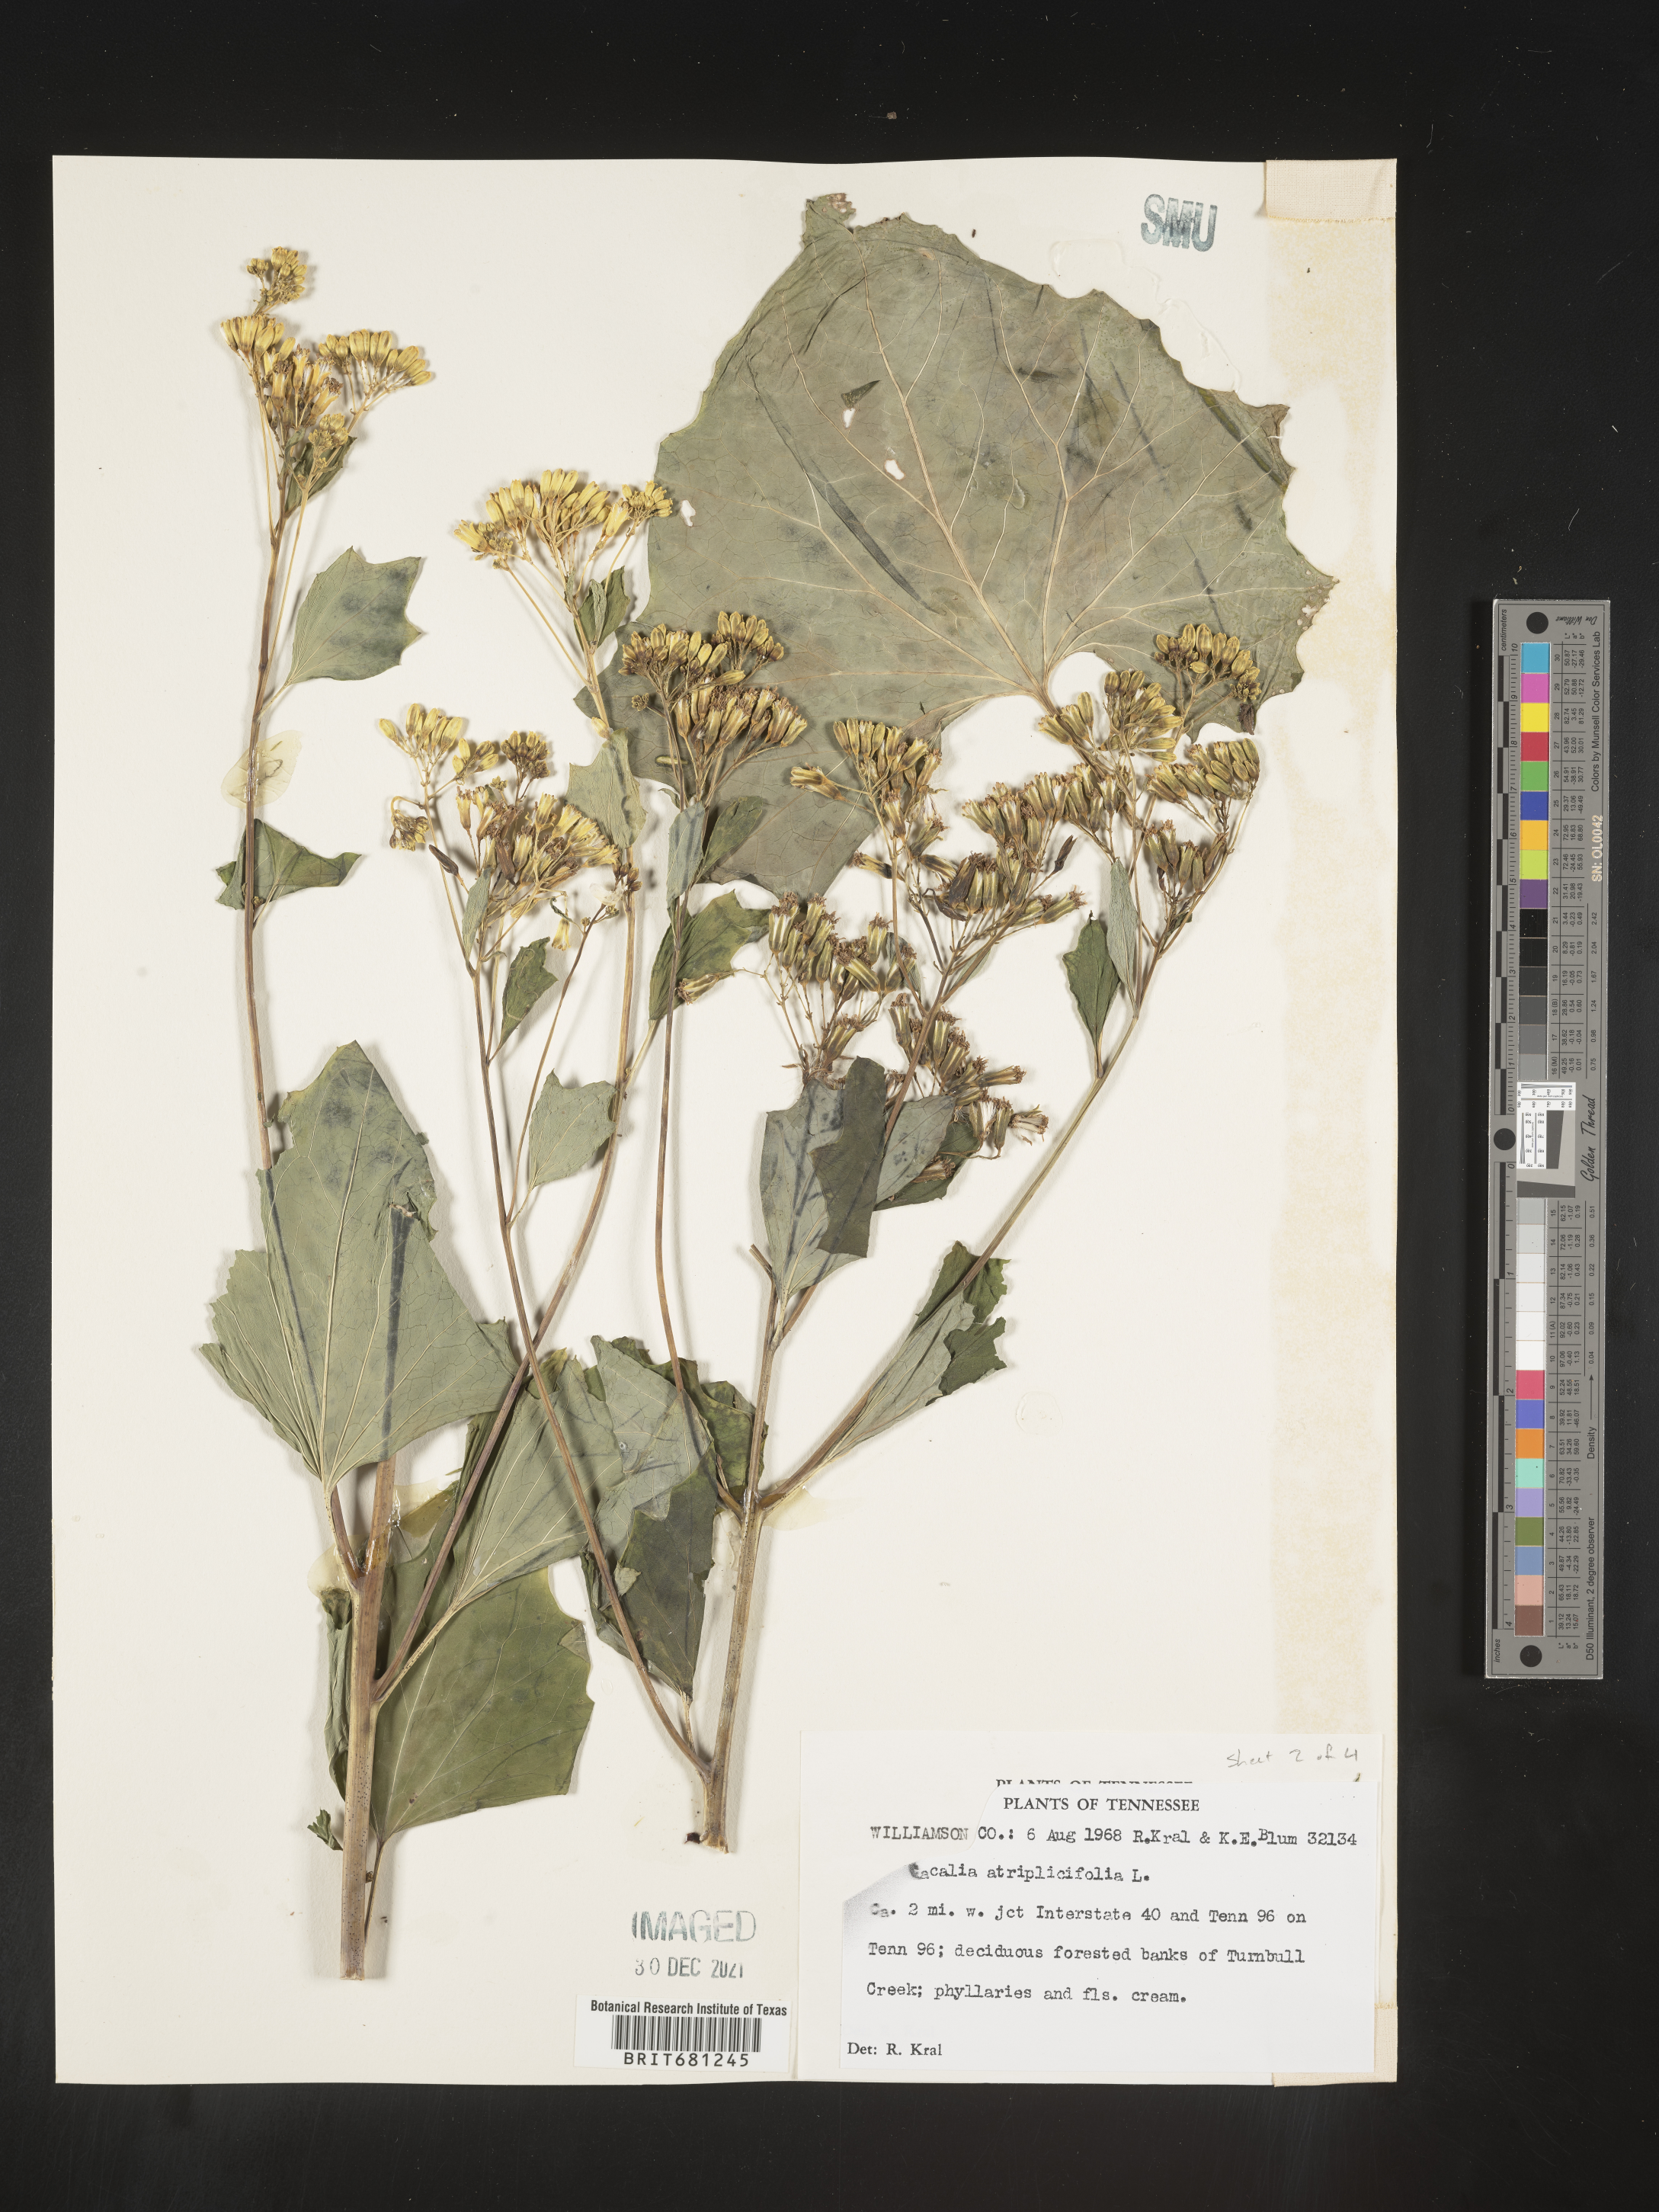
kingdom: Plantae
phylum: Tracheophyta
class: Magnoliopsida
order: Asterales
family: Asteraceae
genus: Arnoglossum
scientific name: Arnoglossum atriplicifolium
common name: Pale indian-plantain
